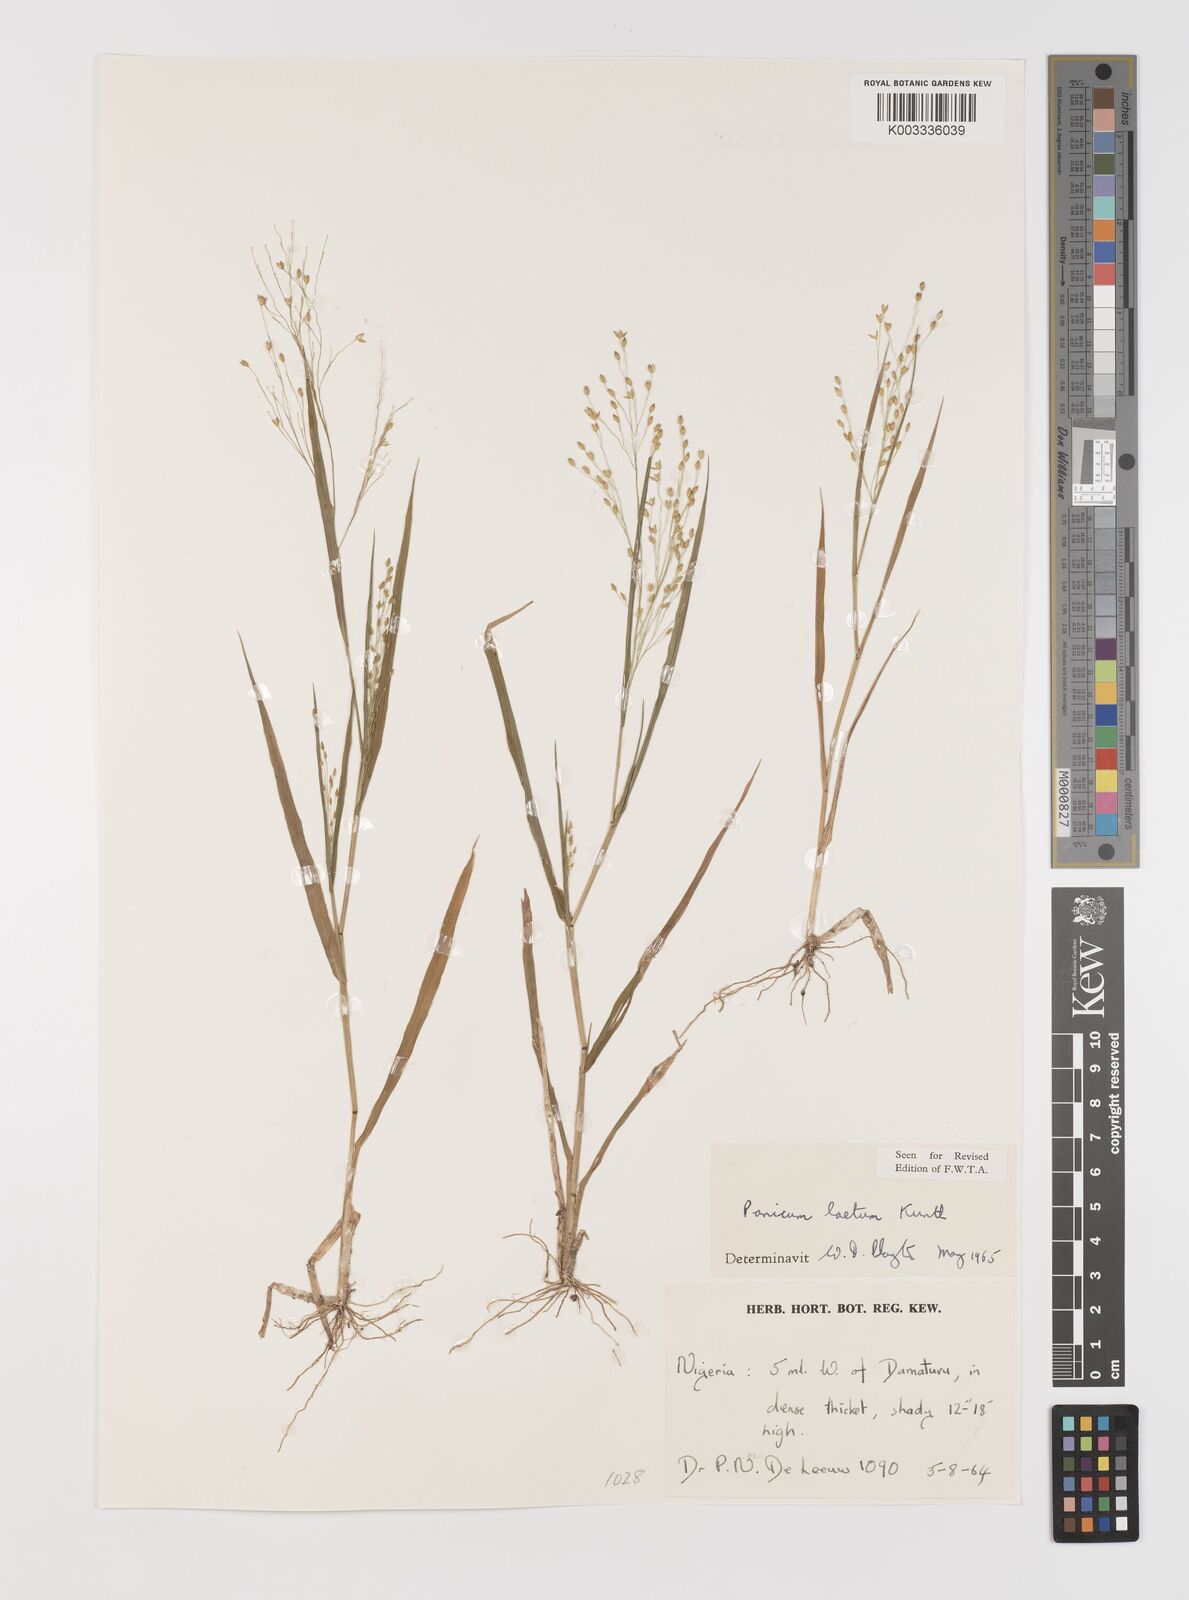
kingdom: Plantae
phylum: Tracheophyta
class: Liliopsida
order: Poales
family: Poaceae
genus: Panicum
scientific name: Panicum laetum
